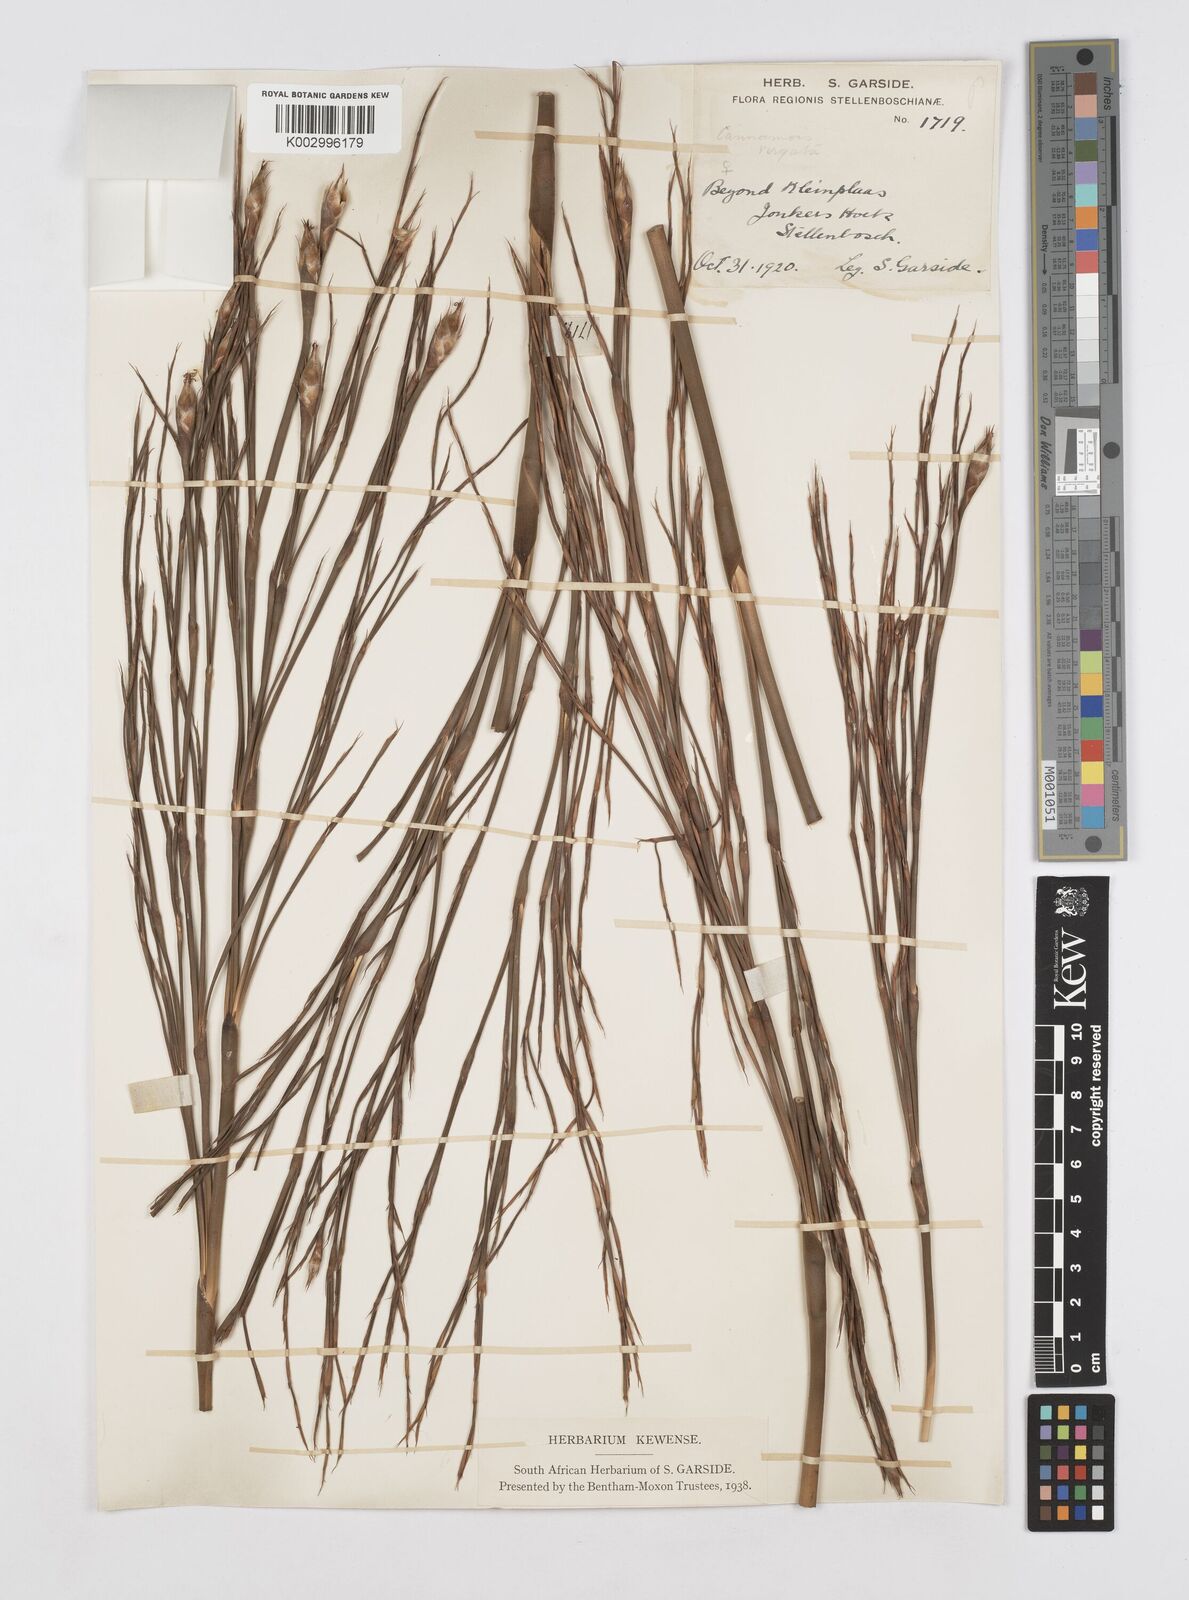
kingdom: Plantae
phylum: Tracheophyta
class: Liliopsida
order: Poales
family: Restionaceae
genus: Cannomois
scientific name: Cannomois virgata
